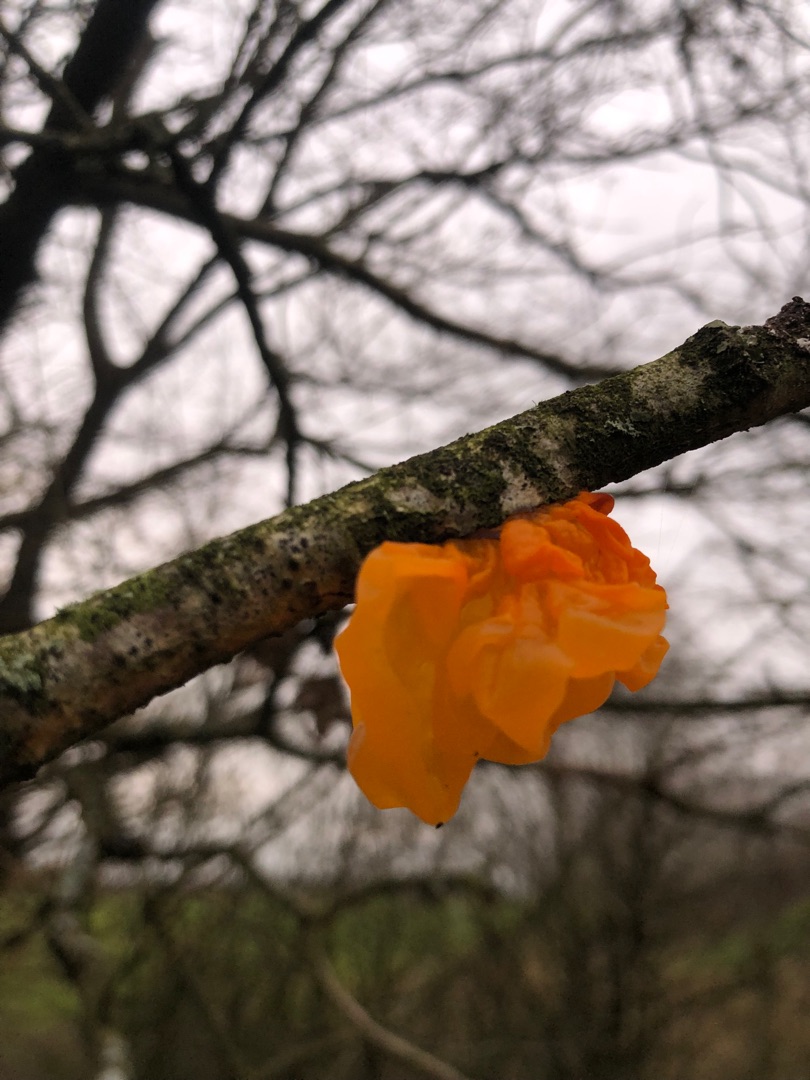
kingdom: Fungi
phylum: Basidiomycota
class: Tremellomycetes
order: Tremellales
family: Tremellaceae
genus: Tremella
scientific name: Tremella mesenterica
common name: Gul bævresvamp
